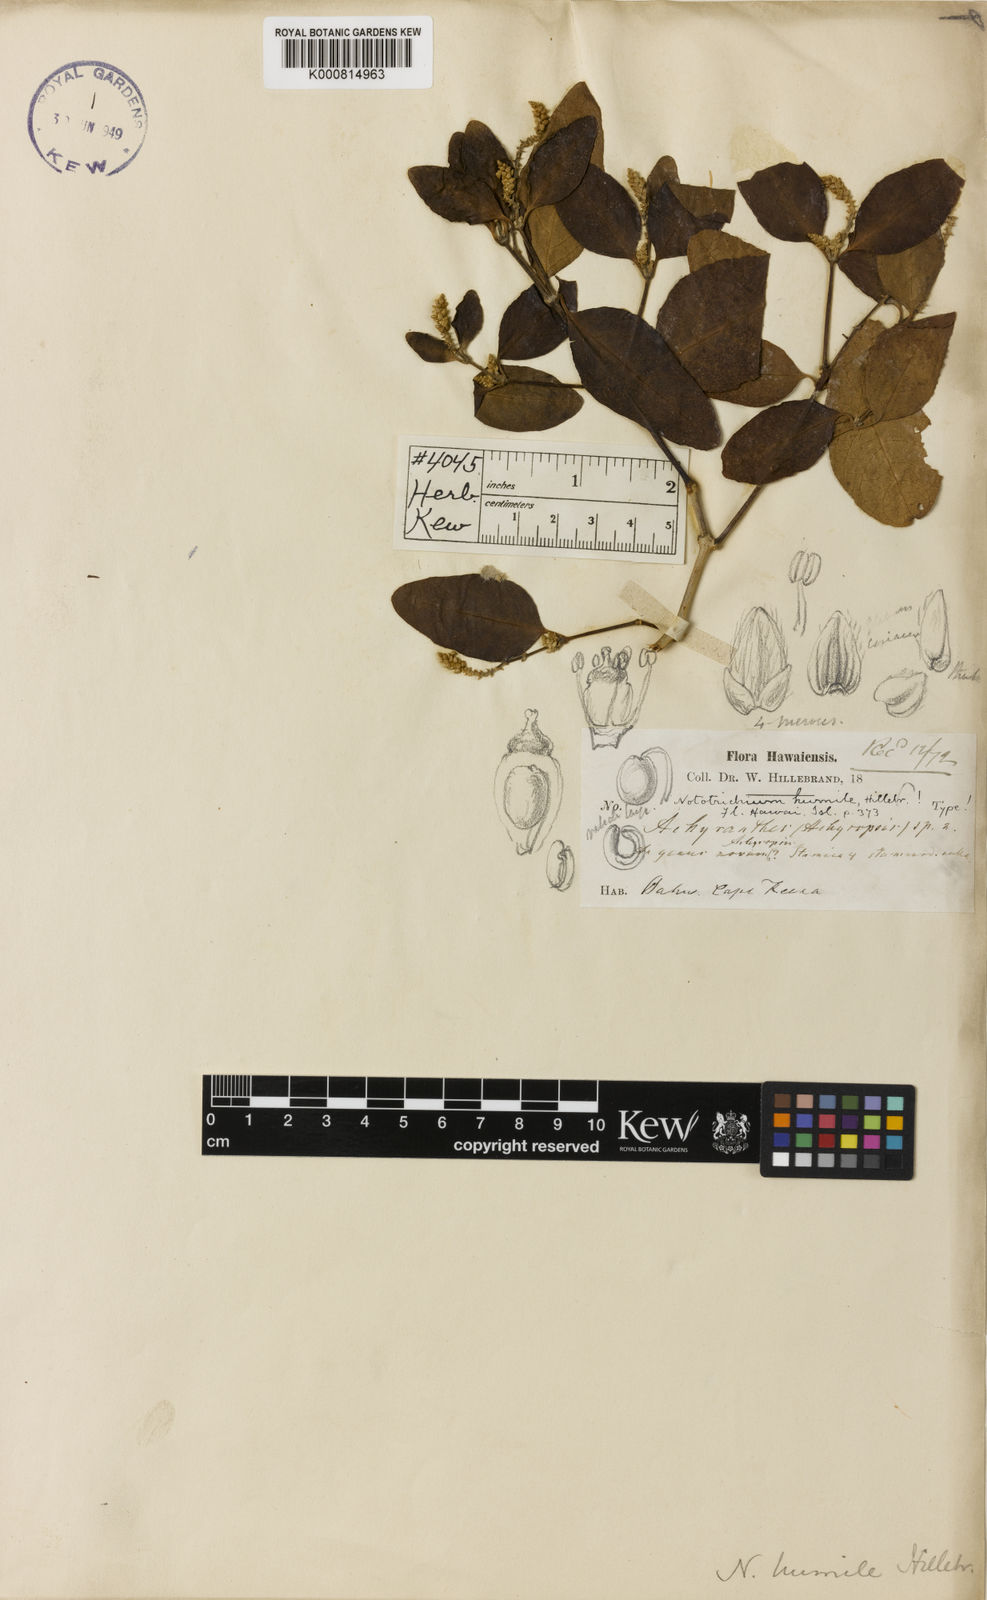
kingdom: Plantae
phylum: Tracheophyta
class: Magnoliopsida
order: Caryophyllales
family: Amaranthaceae
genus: Nototrichium
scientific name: Nototrichium
